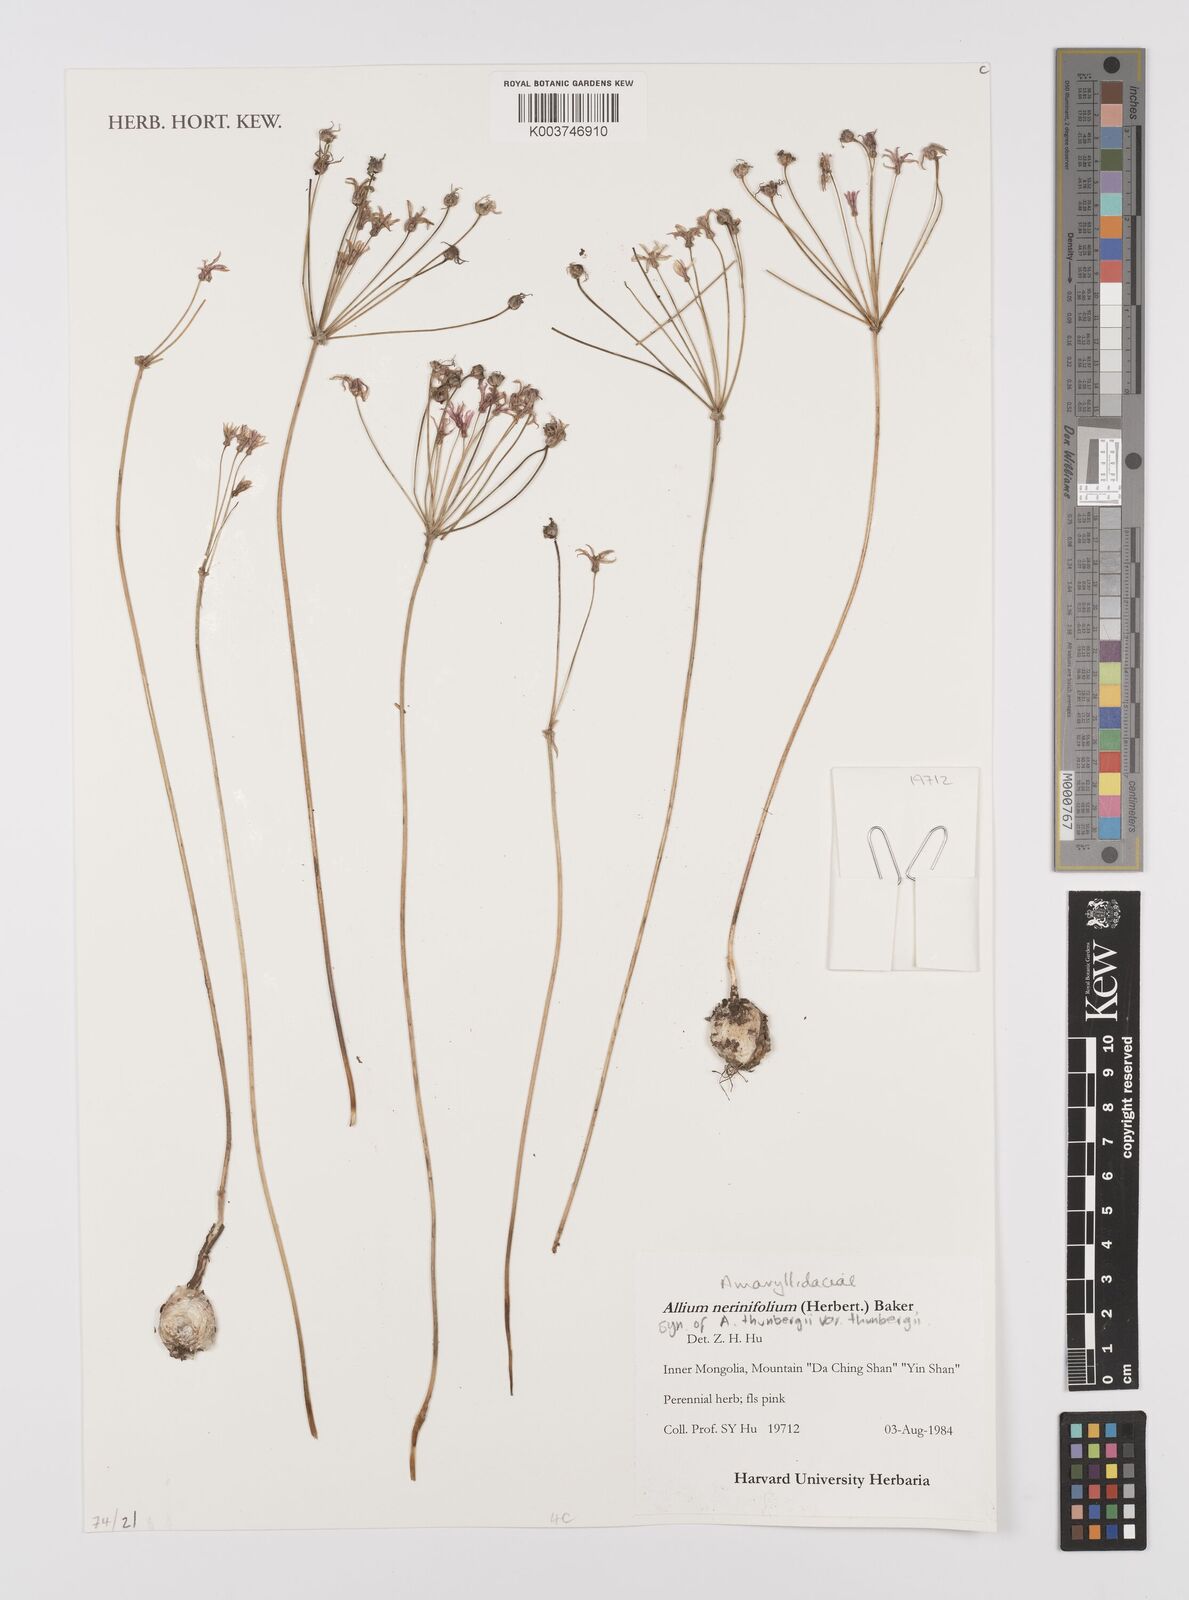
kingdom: Plantae
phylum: Tracheophyta
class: Liliopsida
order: Asparagales
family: Amaryllidaceae
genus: Allium
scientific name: Allium thunbergii
